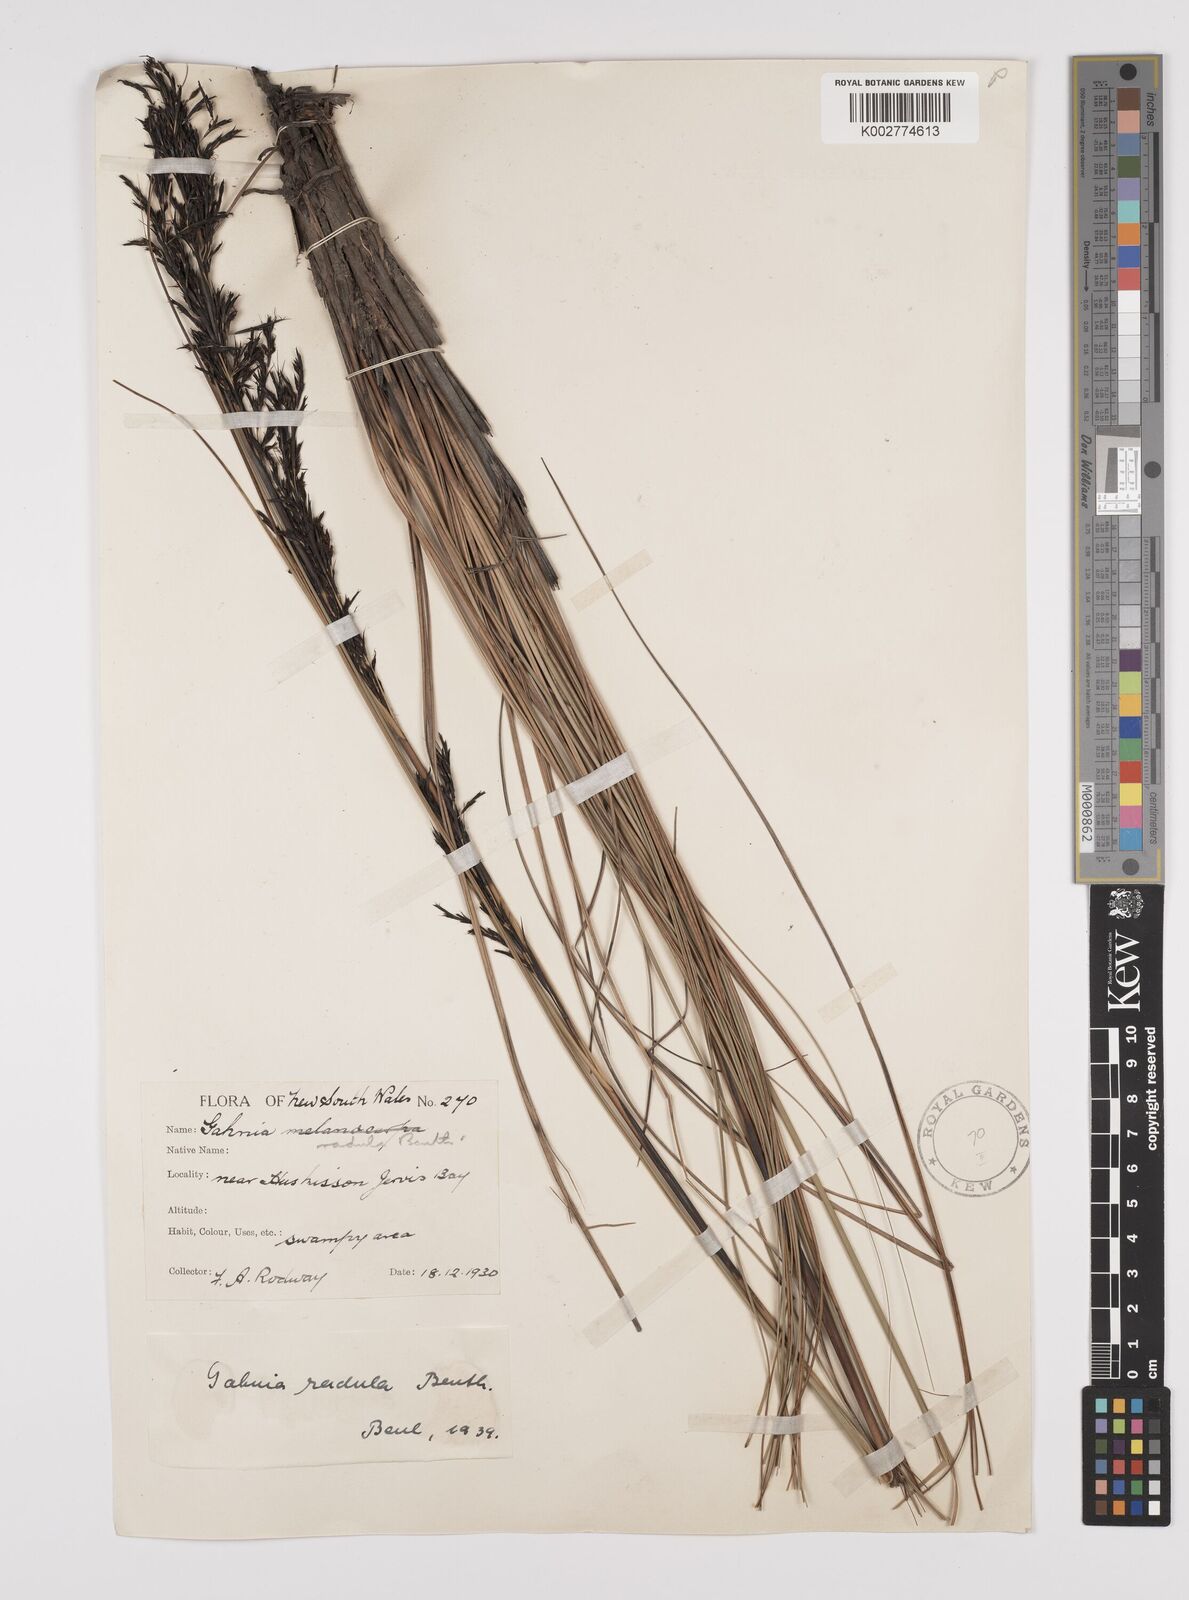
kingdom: Plantae
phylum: Tracheophyta
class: Liliopsida
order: Poales
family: Cyperaceae
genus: Gahnia
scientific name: Gahnia radula
